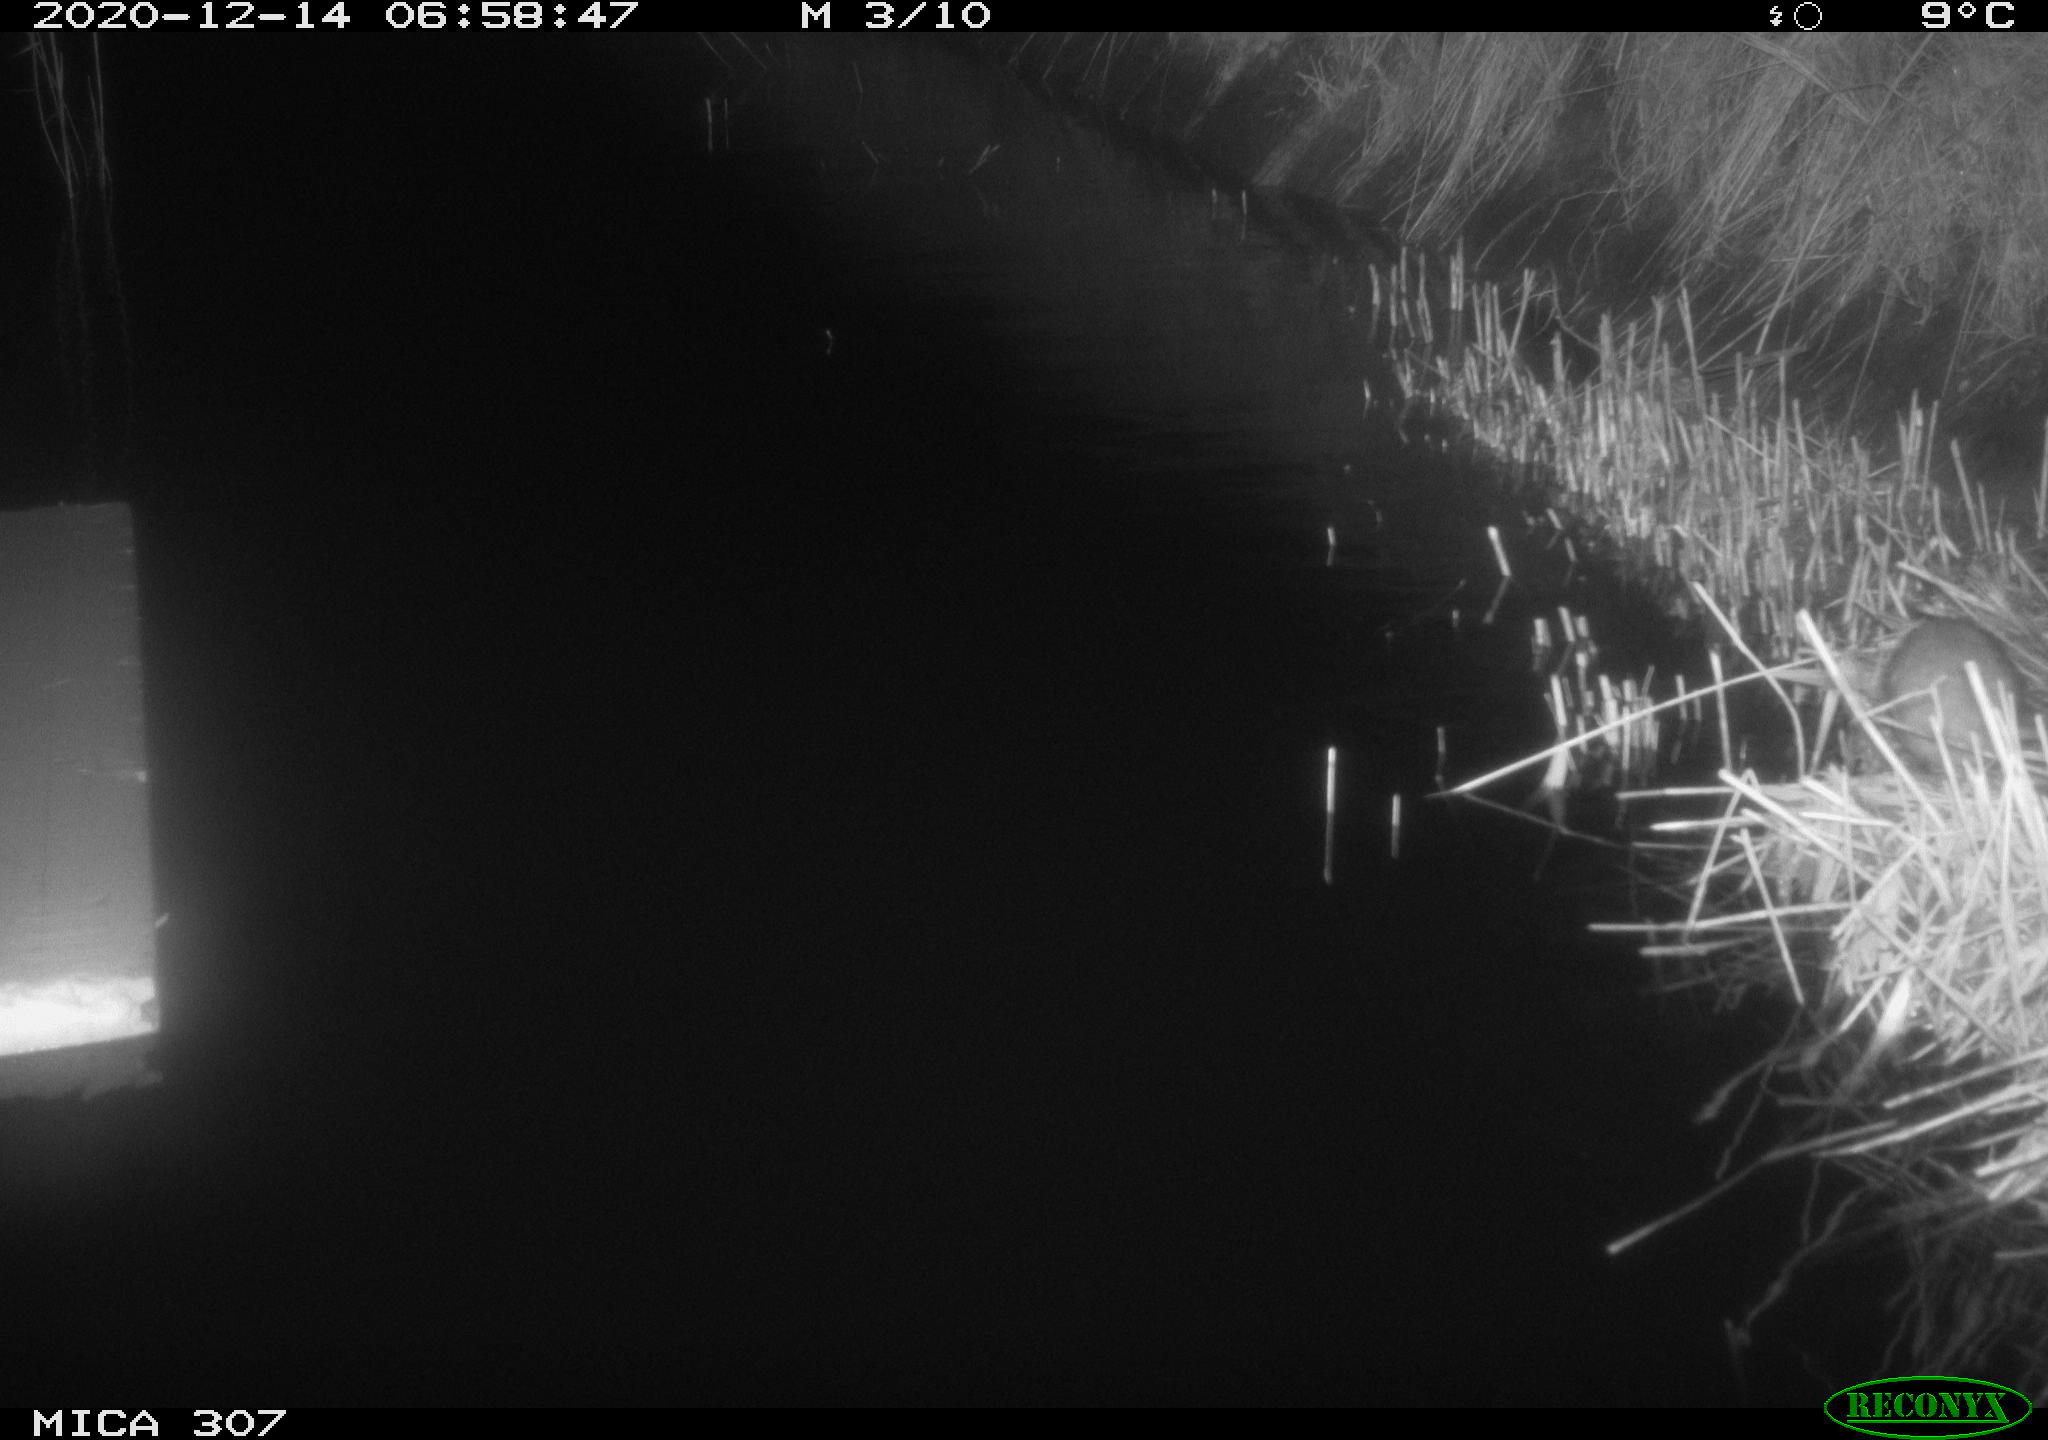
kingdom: Animalia
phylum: Chordata
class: Mammalia
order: Rodentia
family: Muridae
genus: Rattus
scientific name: Rattus norvegicus
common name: Brown rat
